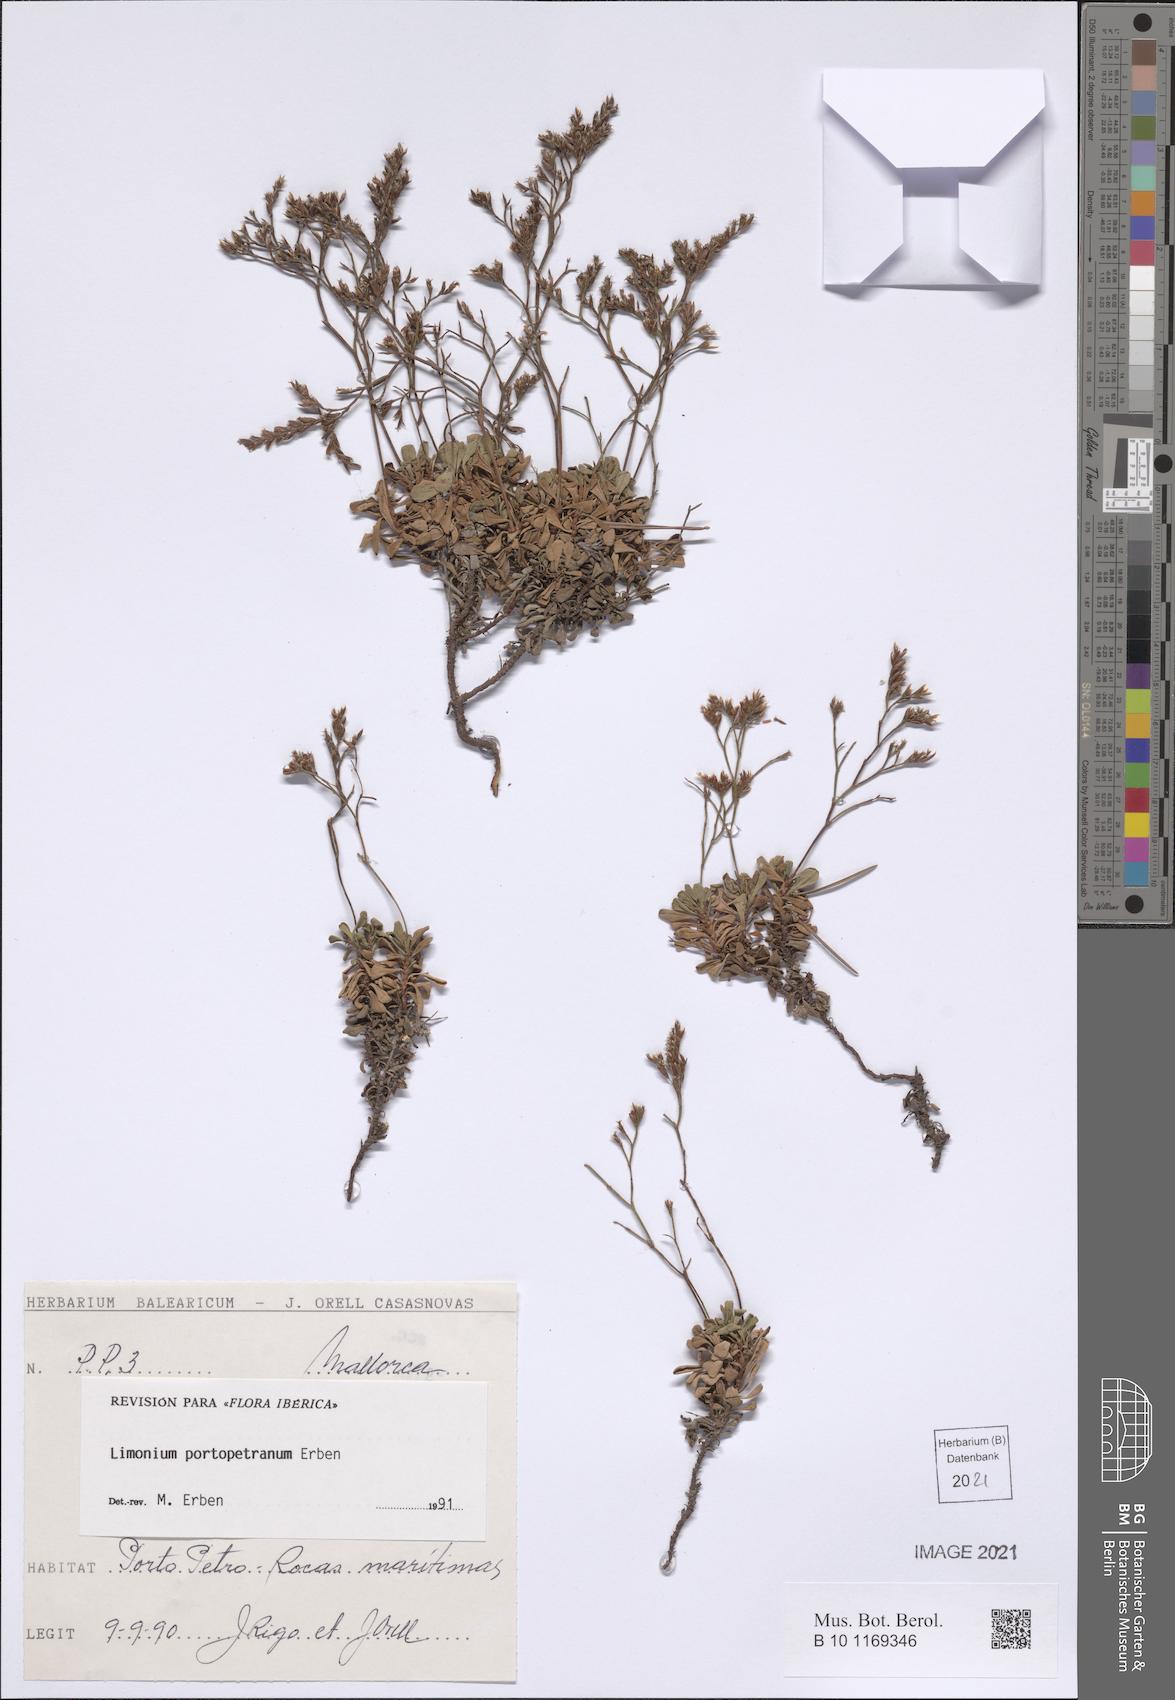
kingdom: Plantae
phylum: Tracheophyta
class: Magnoliopsida
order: Caryophyllales
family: Plumbaginaceae
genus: Limonium
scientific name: Limonium portopetranum
